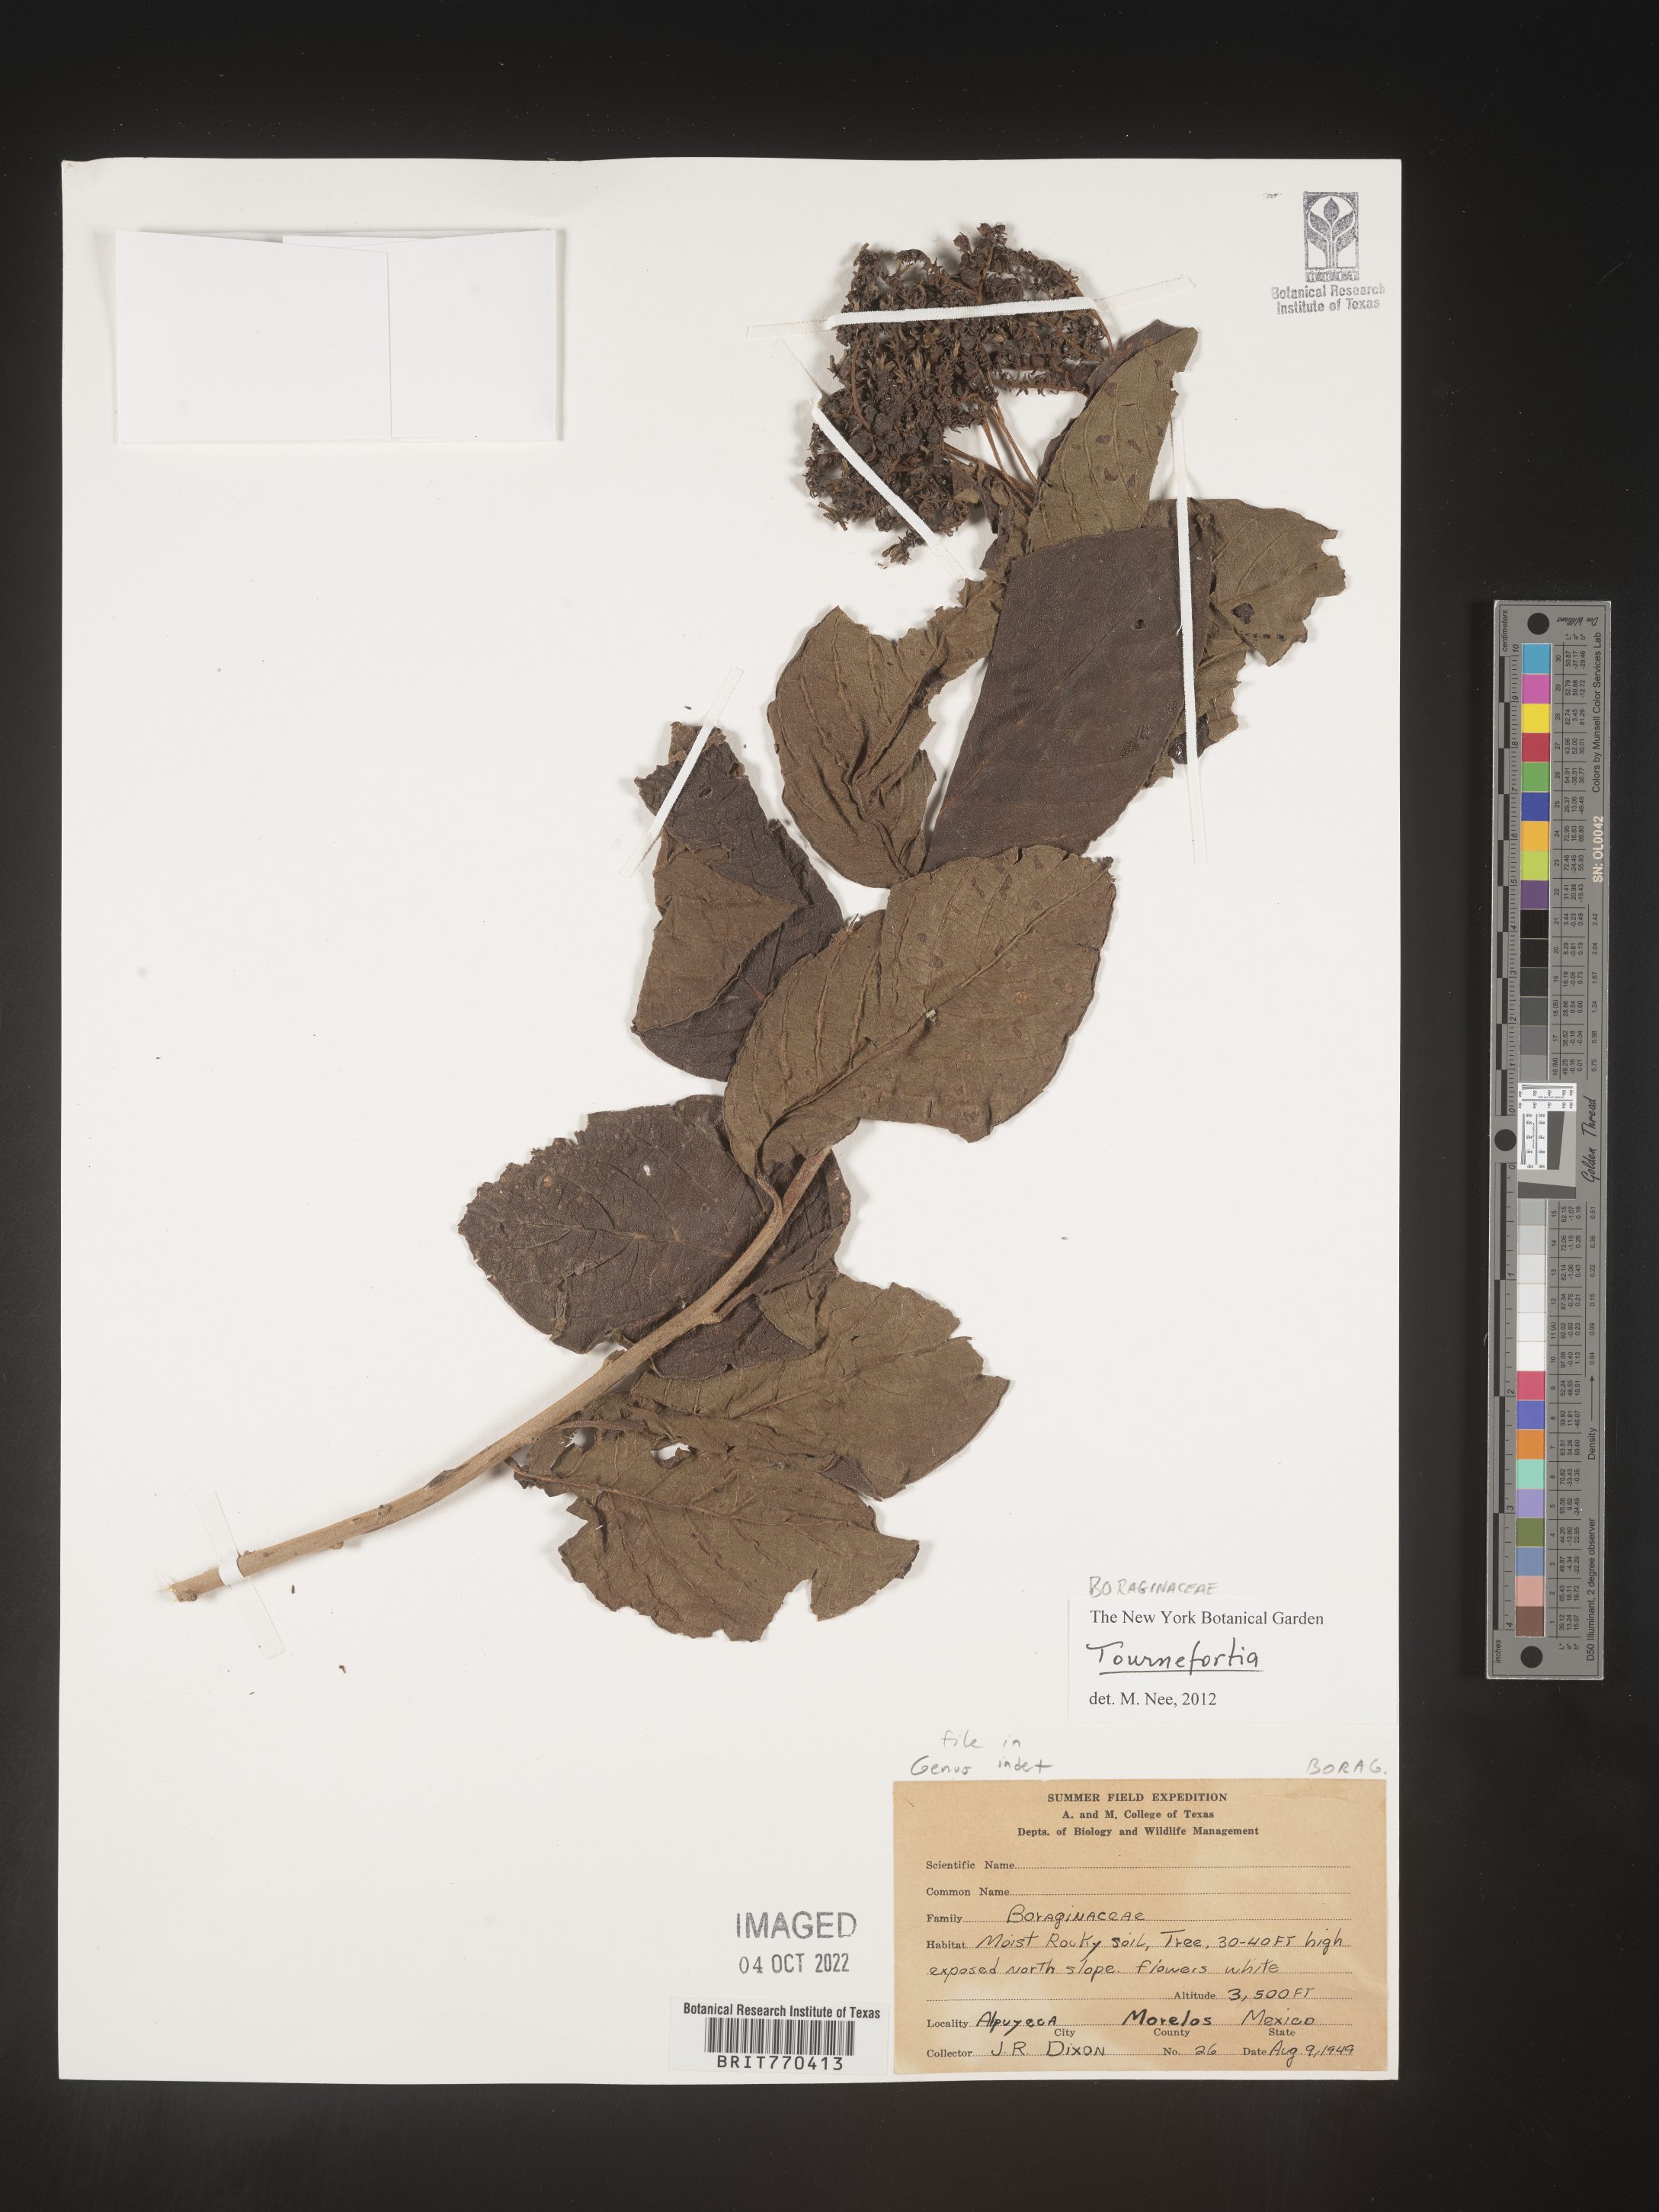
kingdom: Plantae
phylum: Tracheophyta
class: Magnoliopsida
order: Boraginales
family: Heliotropiaceae
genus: Tournefortia
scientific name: Tournefortia
